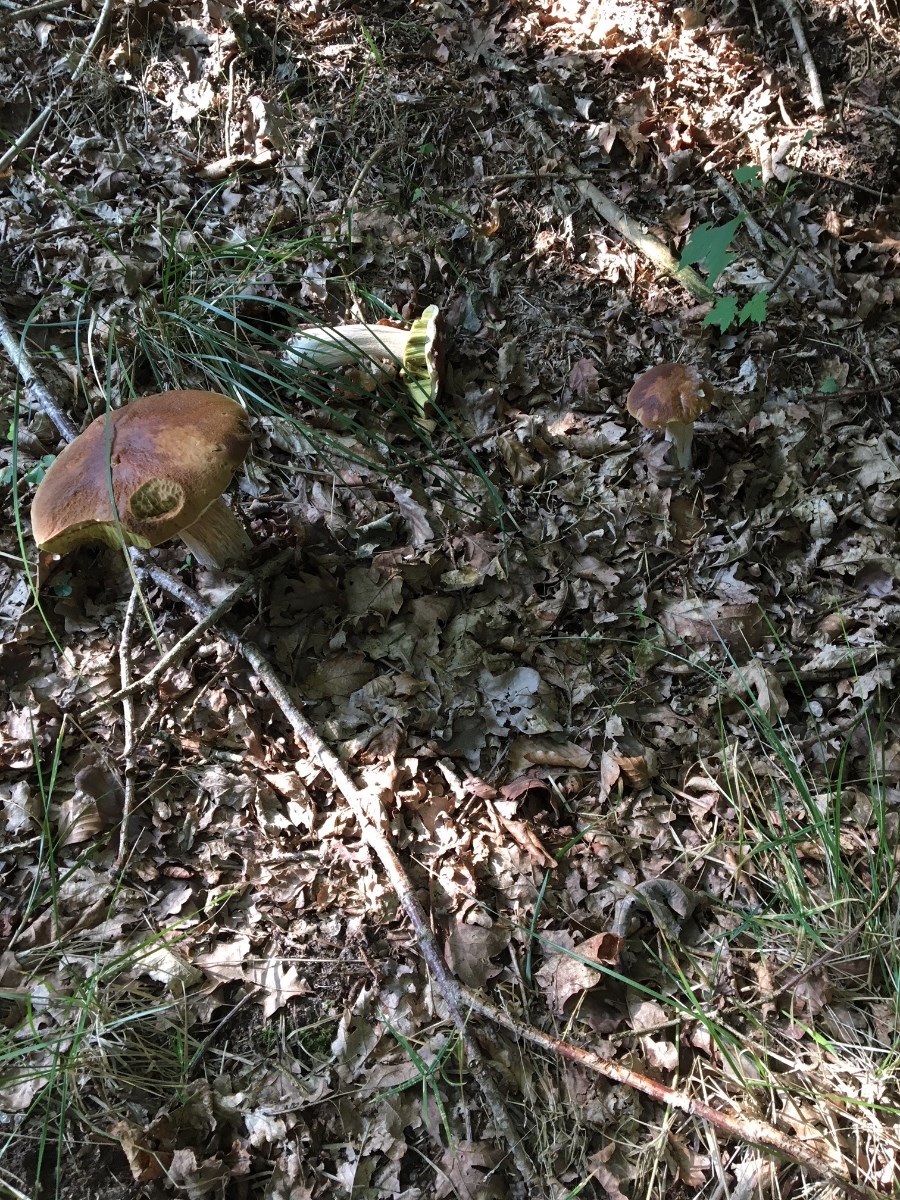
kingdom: Fungi
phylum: Basidiomycota
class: Agaricomycetes
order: Boletales
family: Boletaceae
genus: Boletus
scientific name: Boletus edulis
